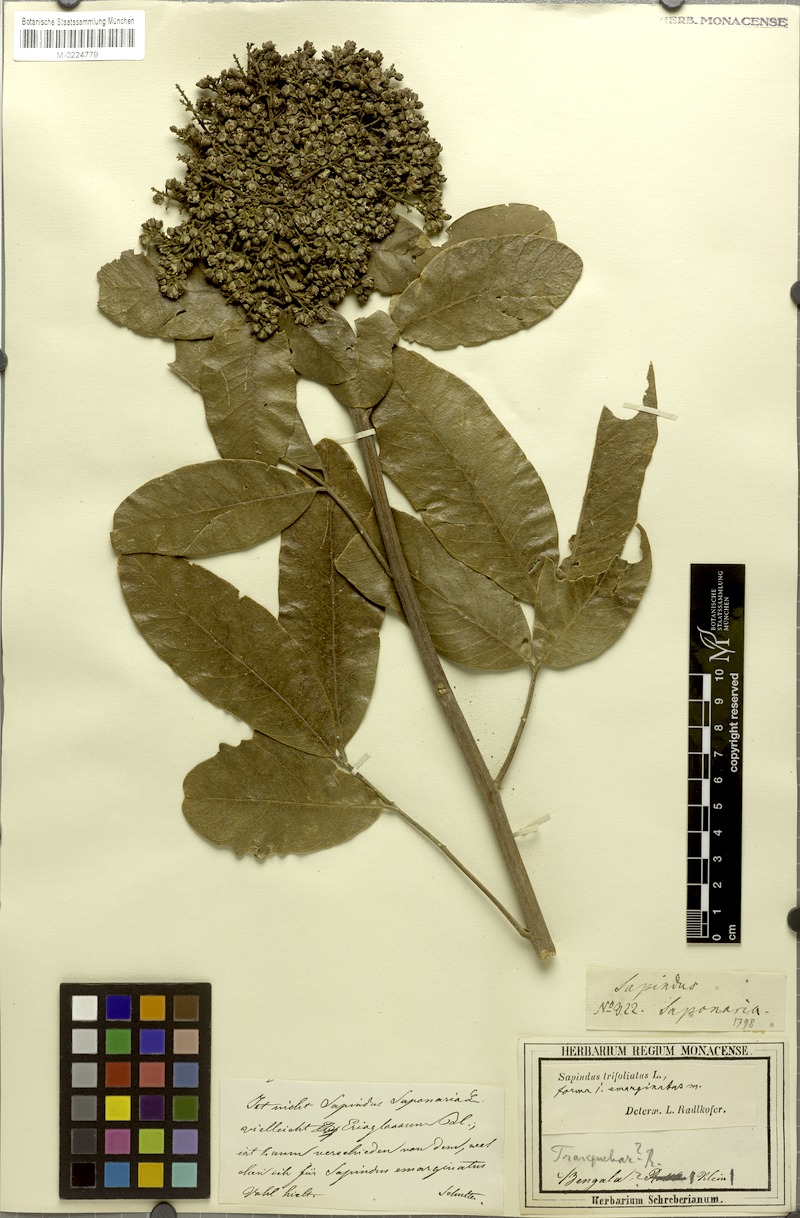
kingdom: Plantae
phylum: Tracheophyta
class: Magnoliopsida
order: Sapindales
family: Sapindaceae
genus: Sapindus
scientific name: Sapindus trifoliatus
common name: Three-leaf soapberry
